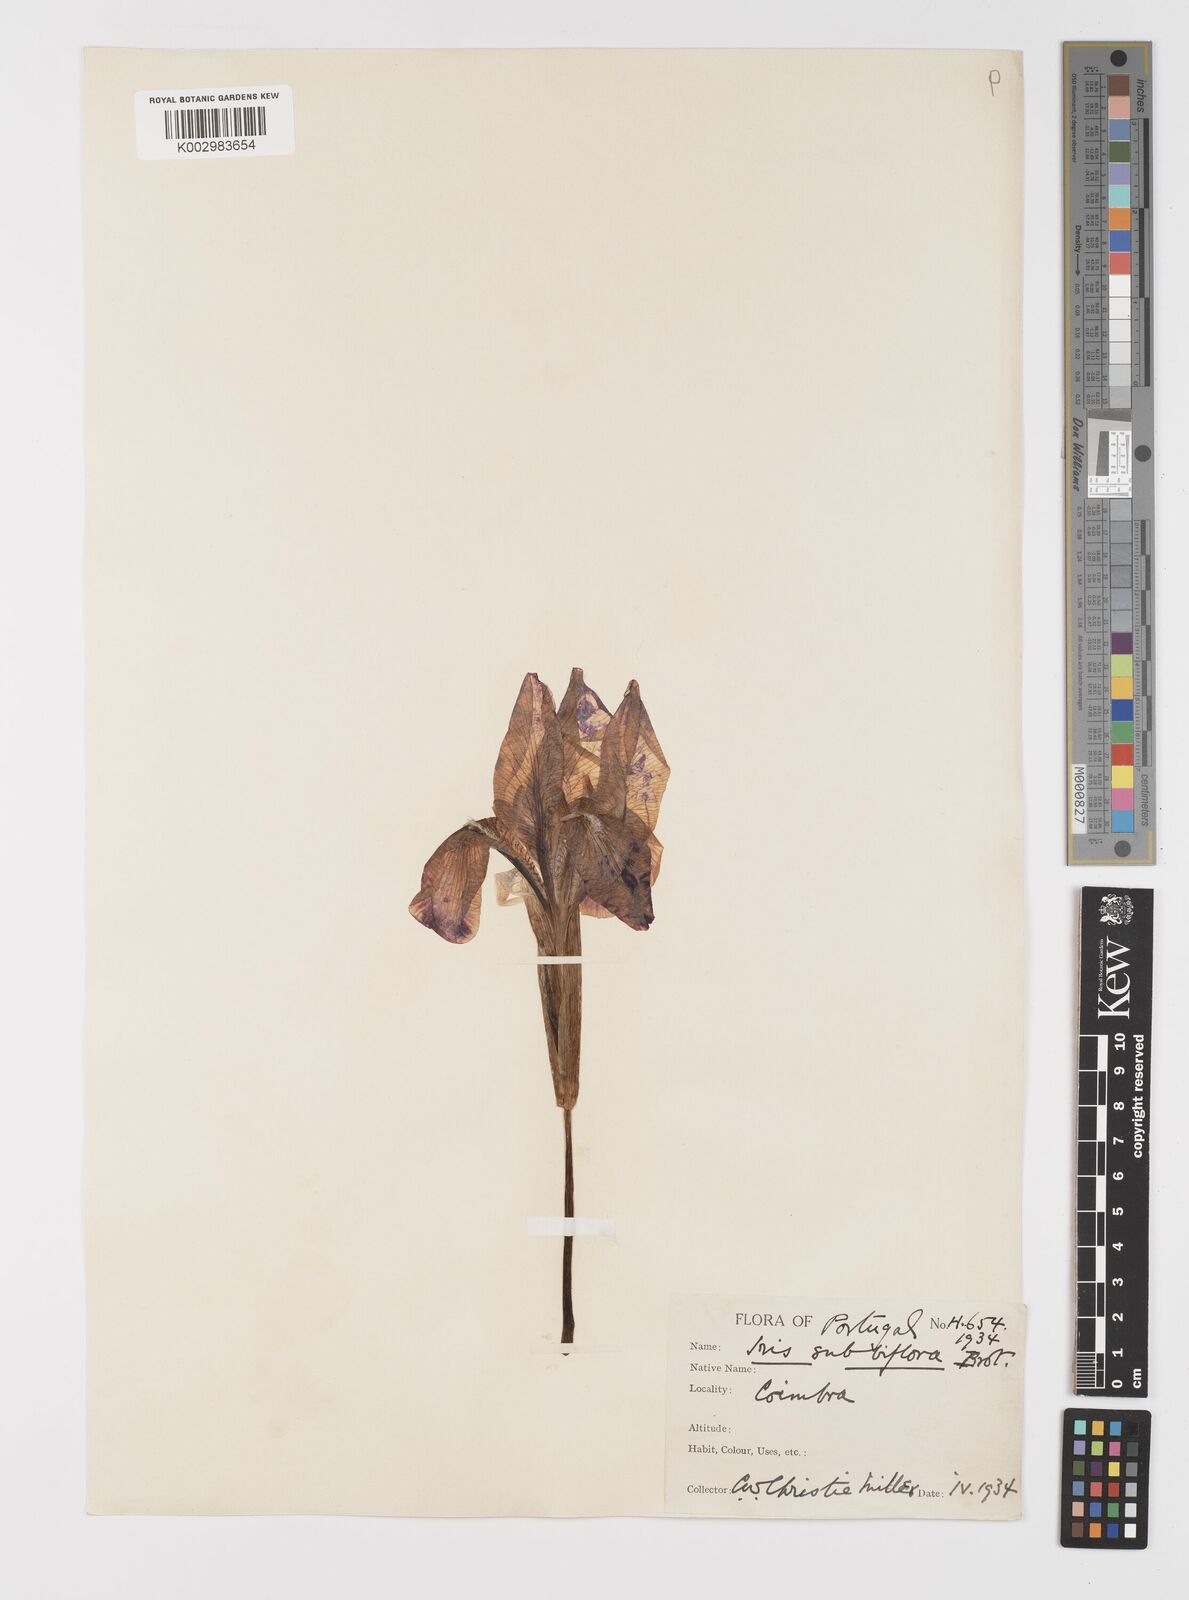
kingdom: Plantae
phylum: Tracheophyta
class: Liliopsida
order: Asparagales
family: Iridaceae
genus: Iris
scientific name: Iris lutescens
